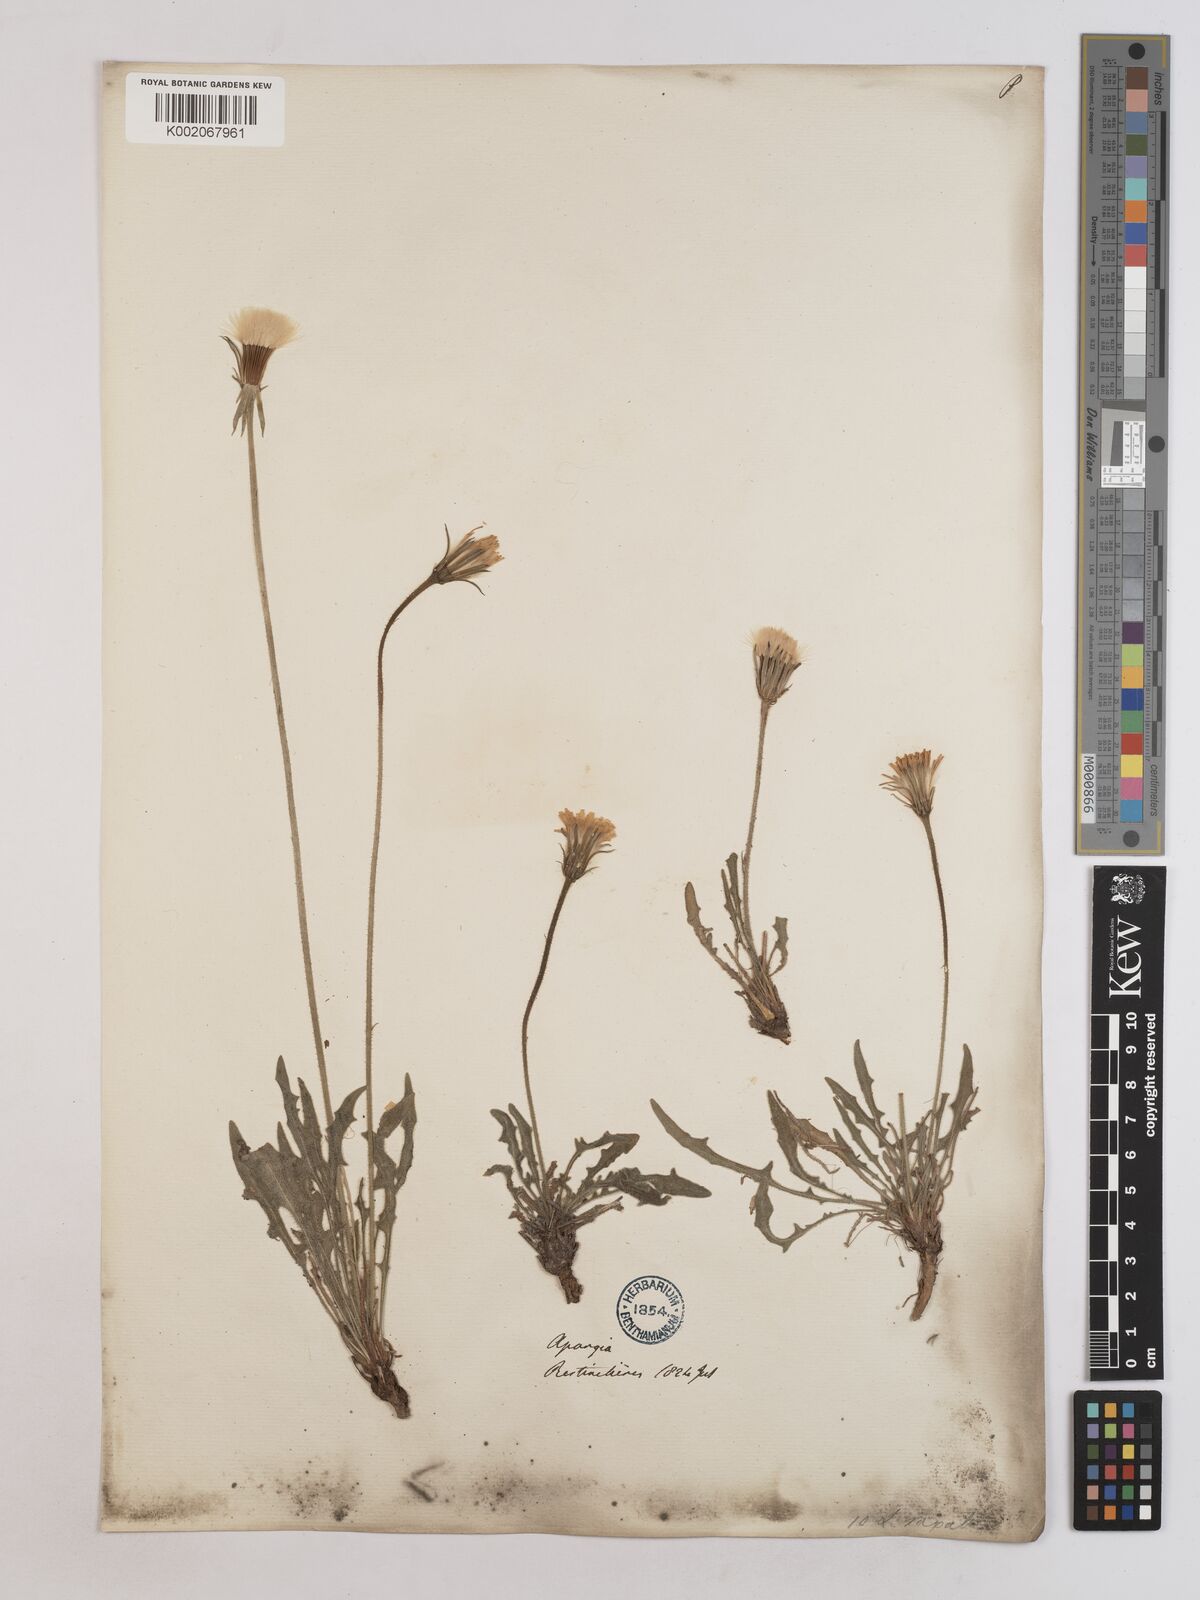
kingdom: Plantae
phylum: Tracheophyta
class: Magnoliopsida
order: Asterales
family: Asteraceae
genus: Leontodon
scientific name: Leontodon crispus
